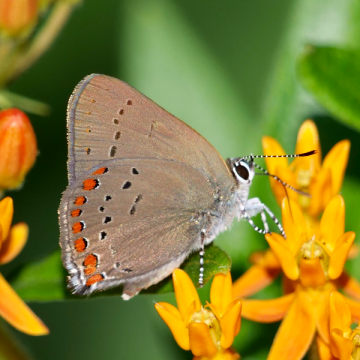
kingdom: Animalia
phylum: Arthropoda
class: Insecta
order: Lepidoptera
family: Lycaenidae
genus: Harkenclenus
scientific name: Harkenclenus titus
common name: Coral Hairstreak
